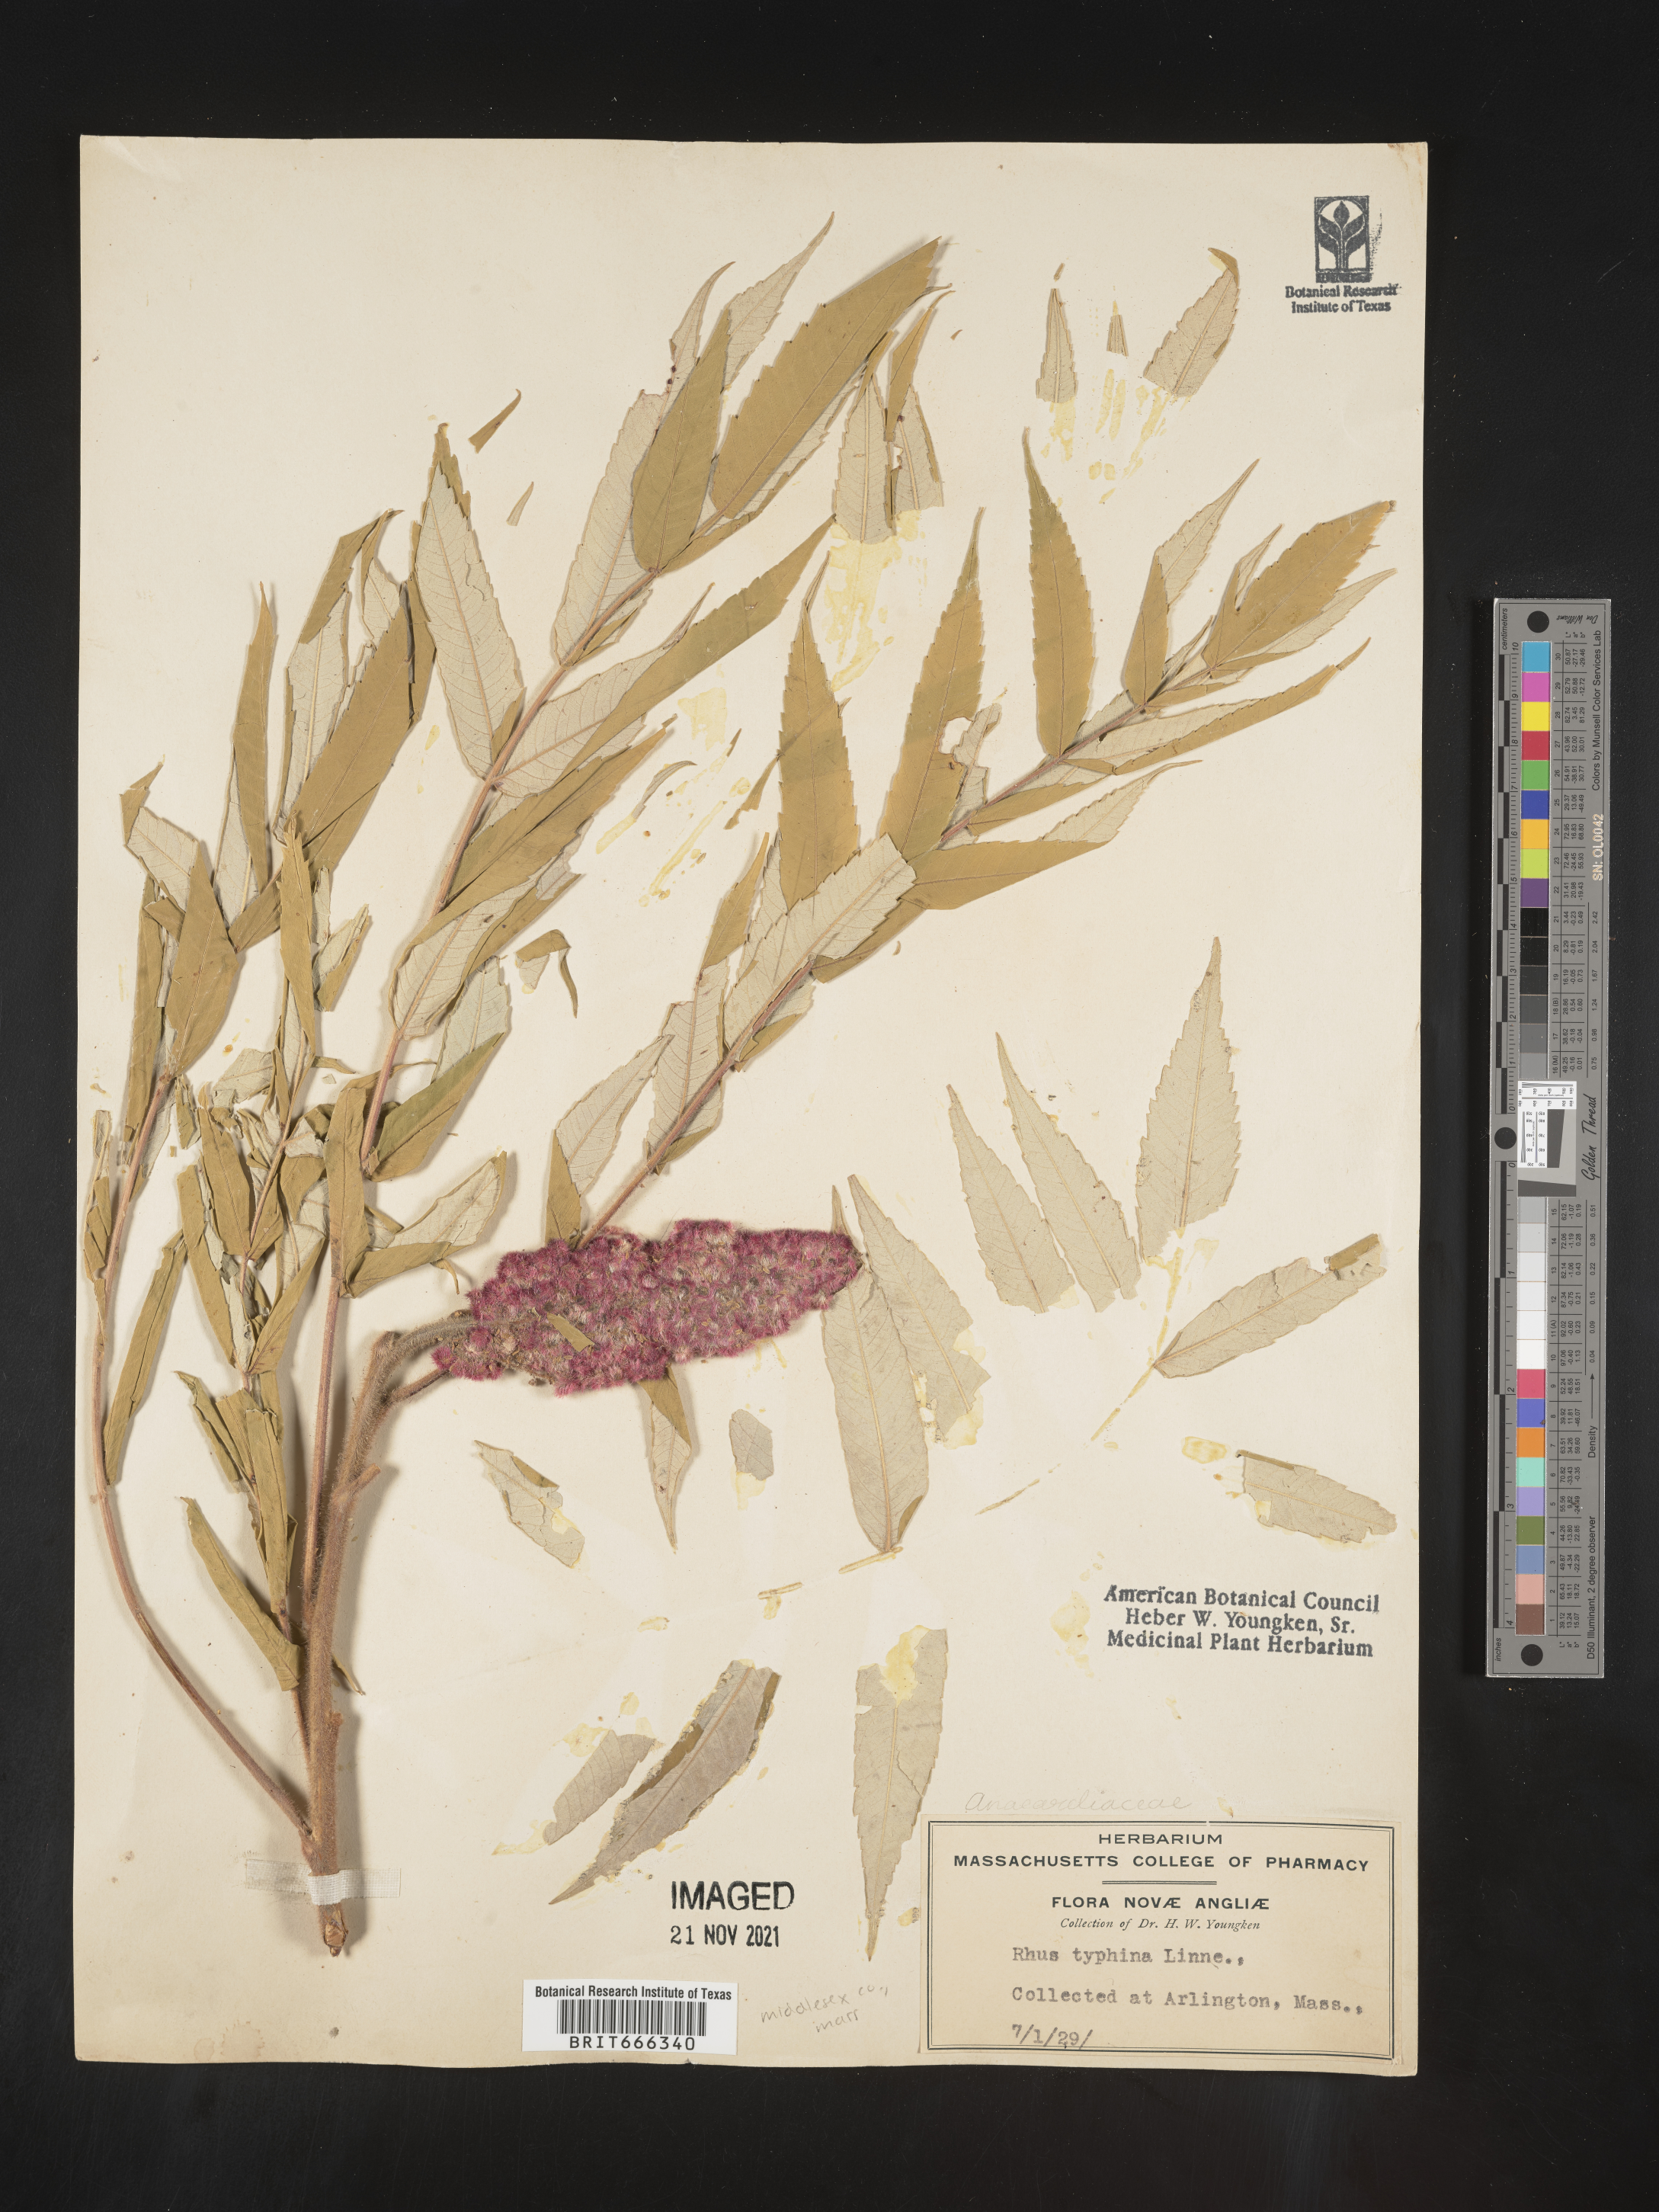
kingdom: Plantae
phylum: Tracheophyta
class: Magnoliopsida
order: Sapindales
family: Anacardiaceae
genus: Rhus
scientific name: Rhus typhina
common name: Staghorn sumac
